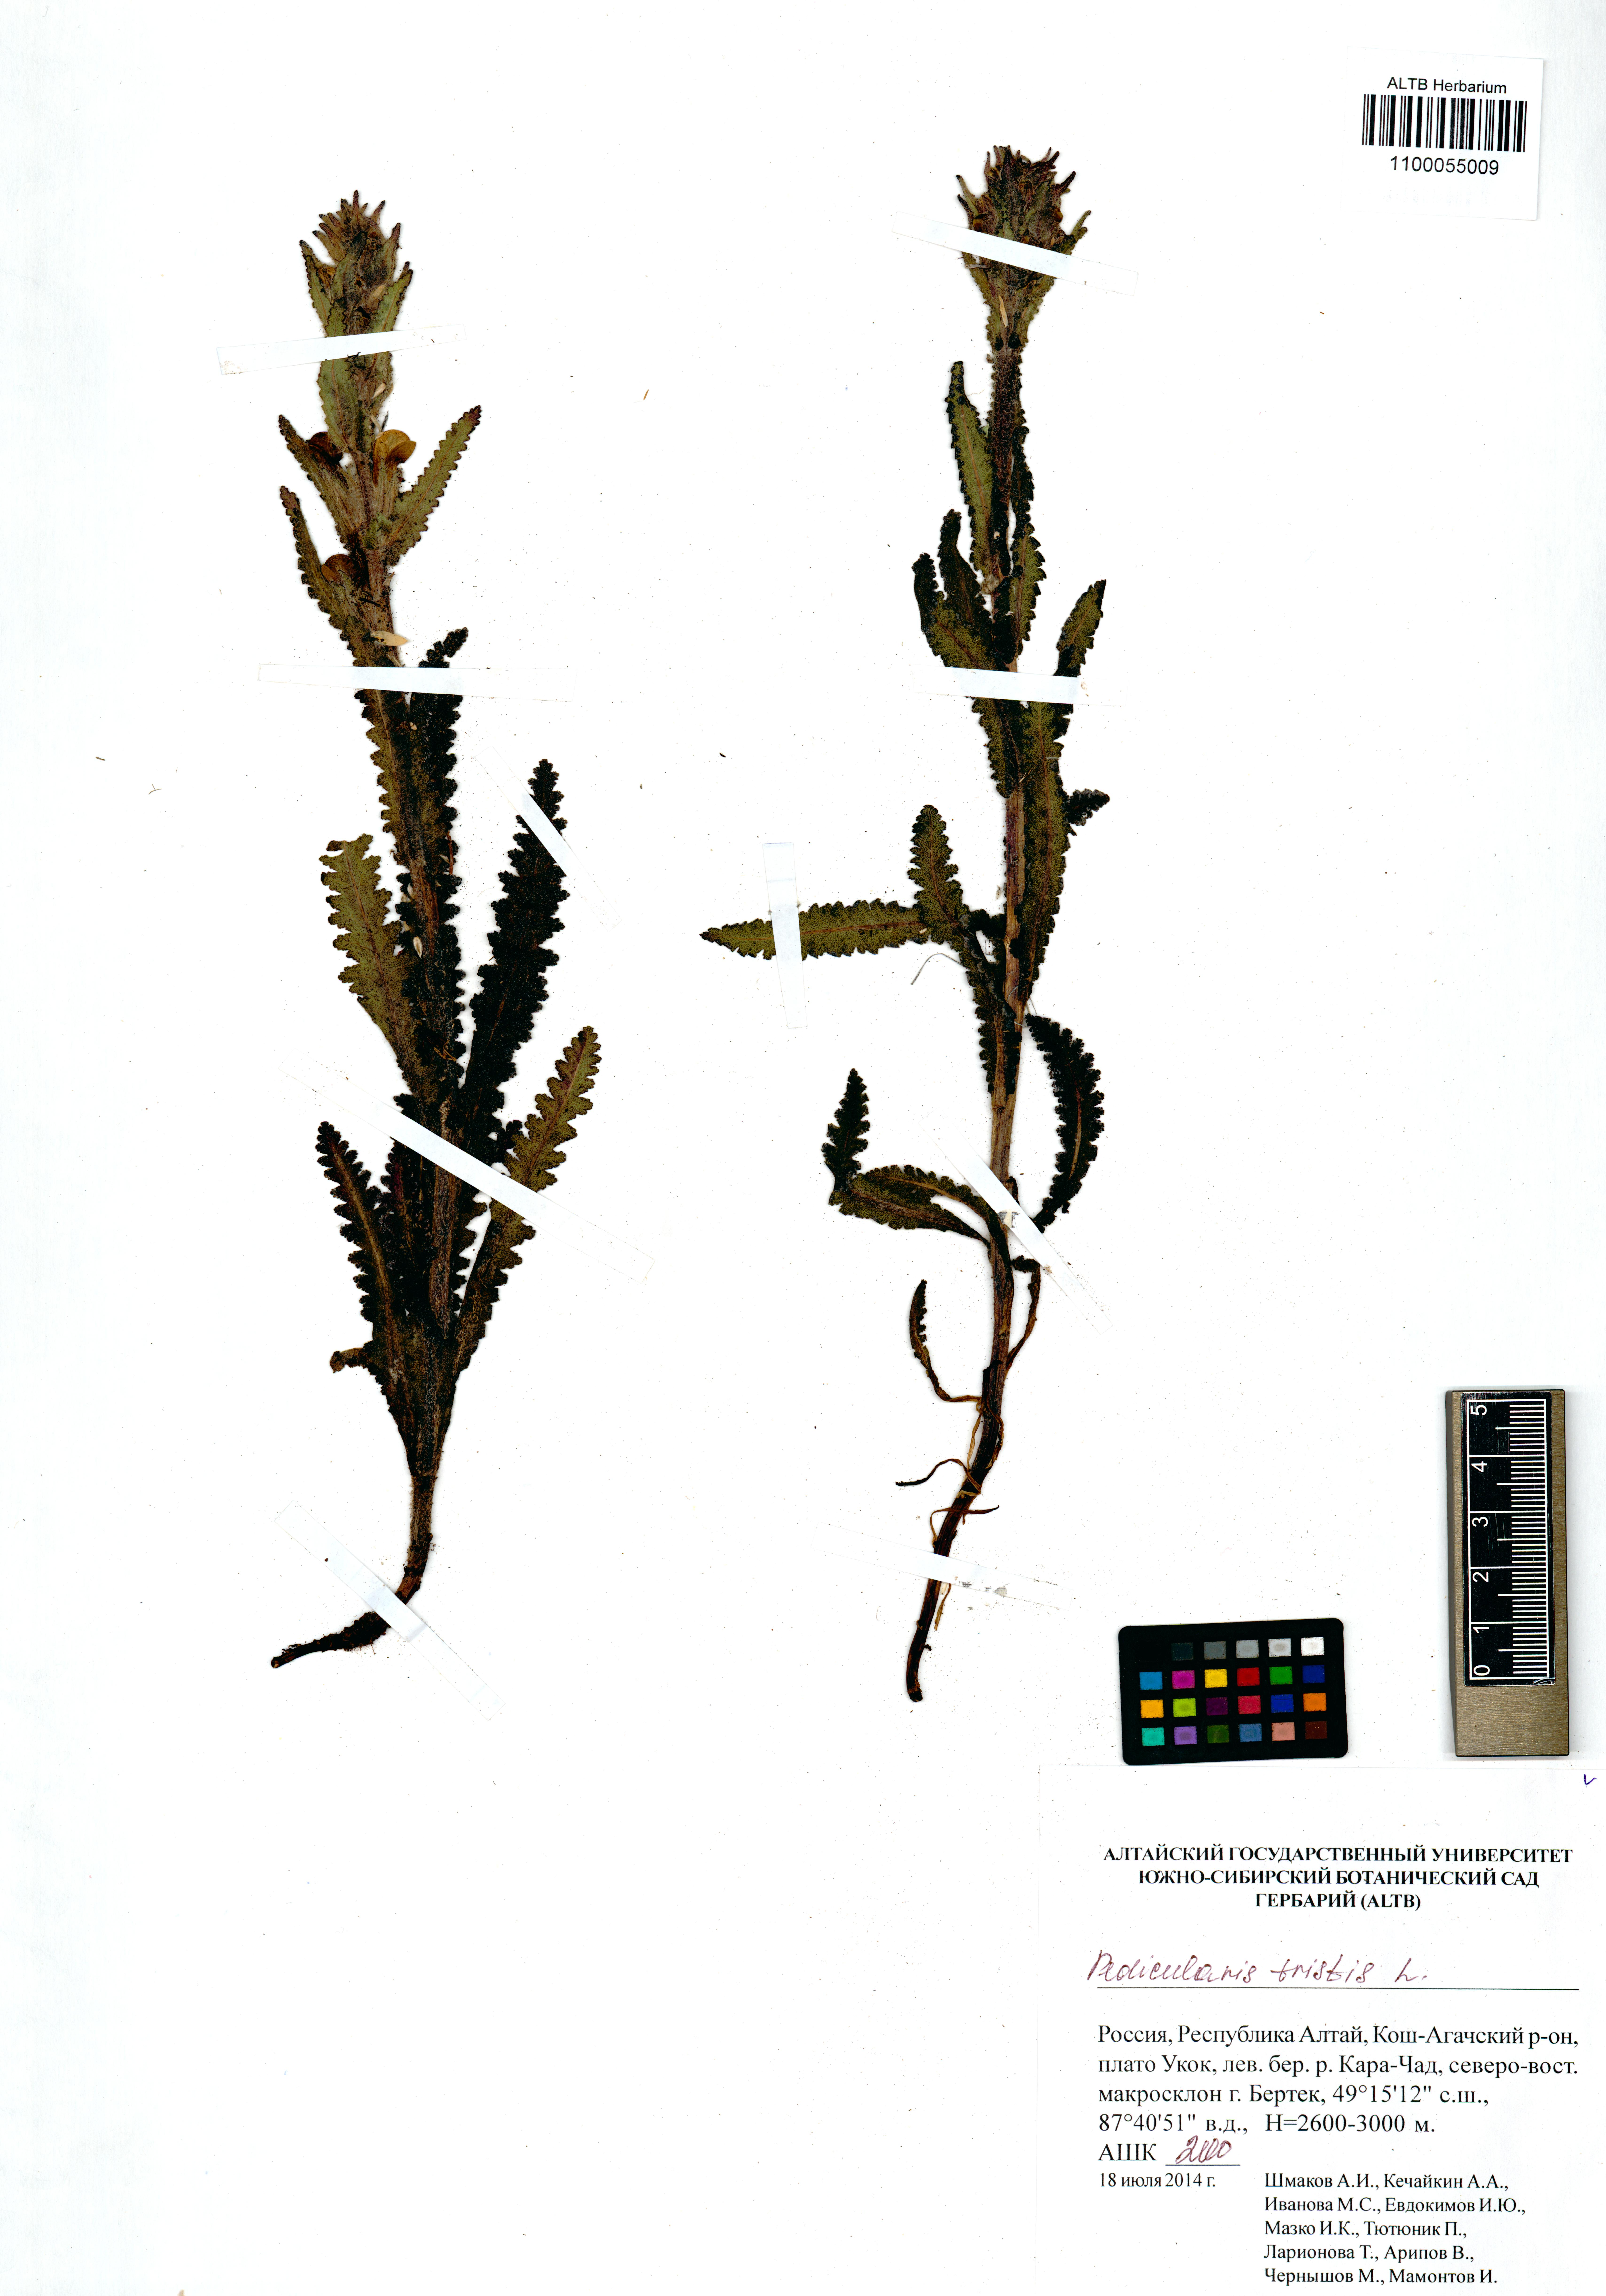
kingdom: Plantae
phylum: Tracheophyta
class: Magnoliopsida
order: Lamiales
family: Orobanchaceae
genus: Pedicularis
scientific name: Pedicularis tristis
